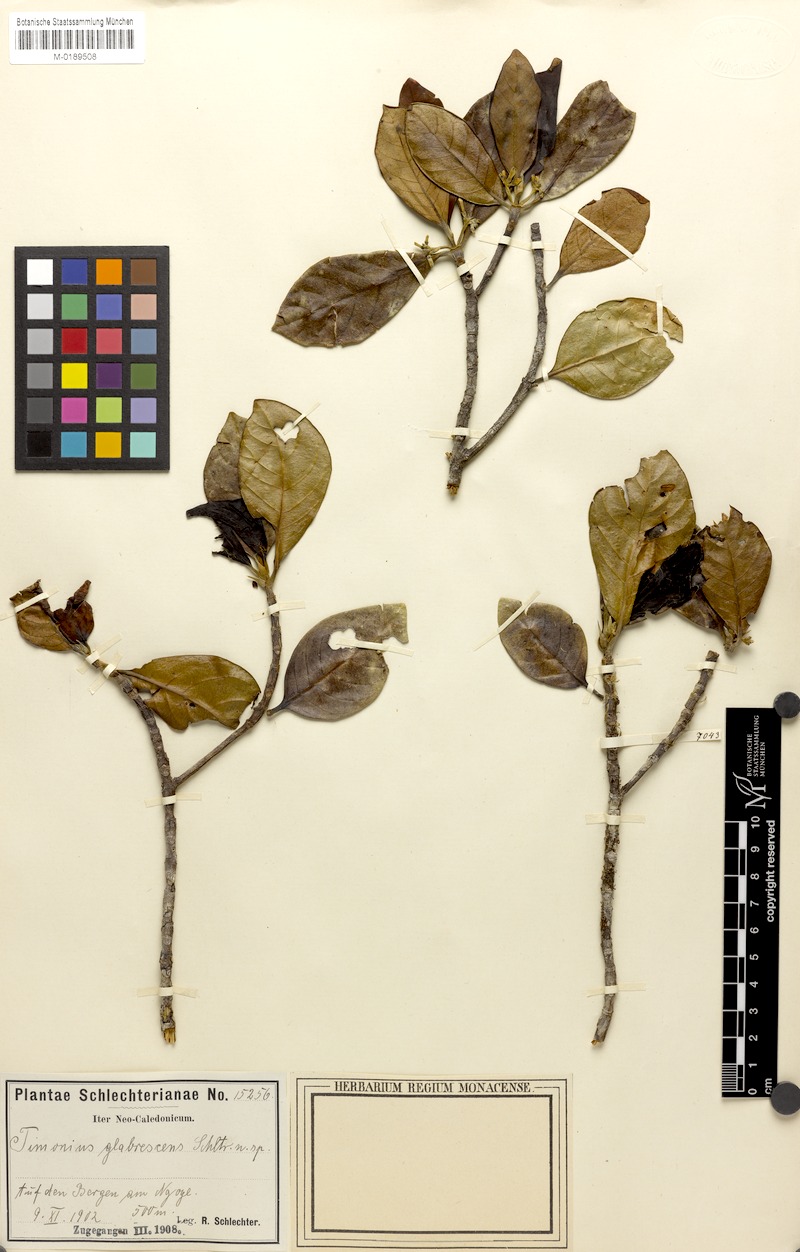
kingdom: Plantae
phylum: Tracheophyta
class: Magnoliopsida
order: Gentianales
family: Rubiaceae
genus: Achilleanthus
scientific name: Achilleanthus glabrescens
